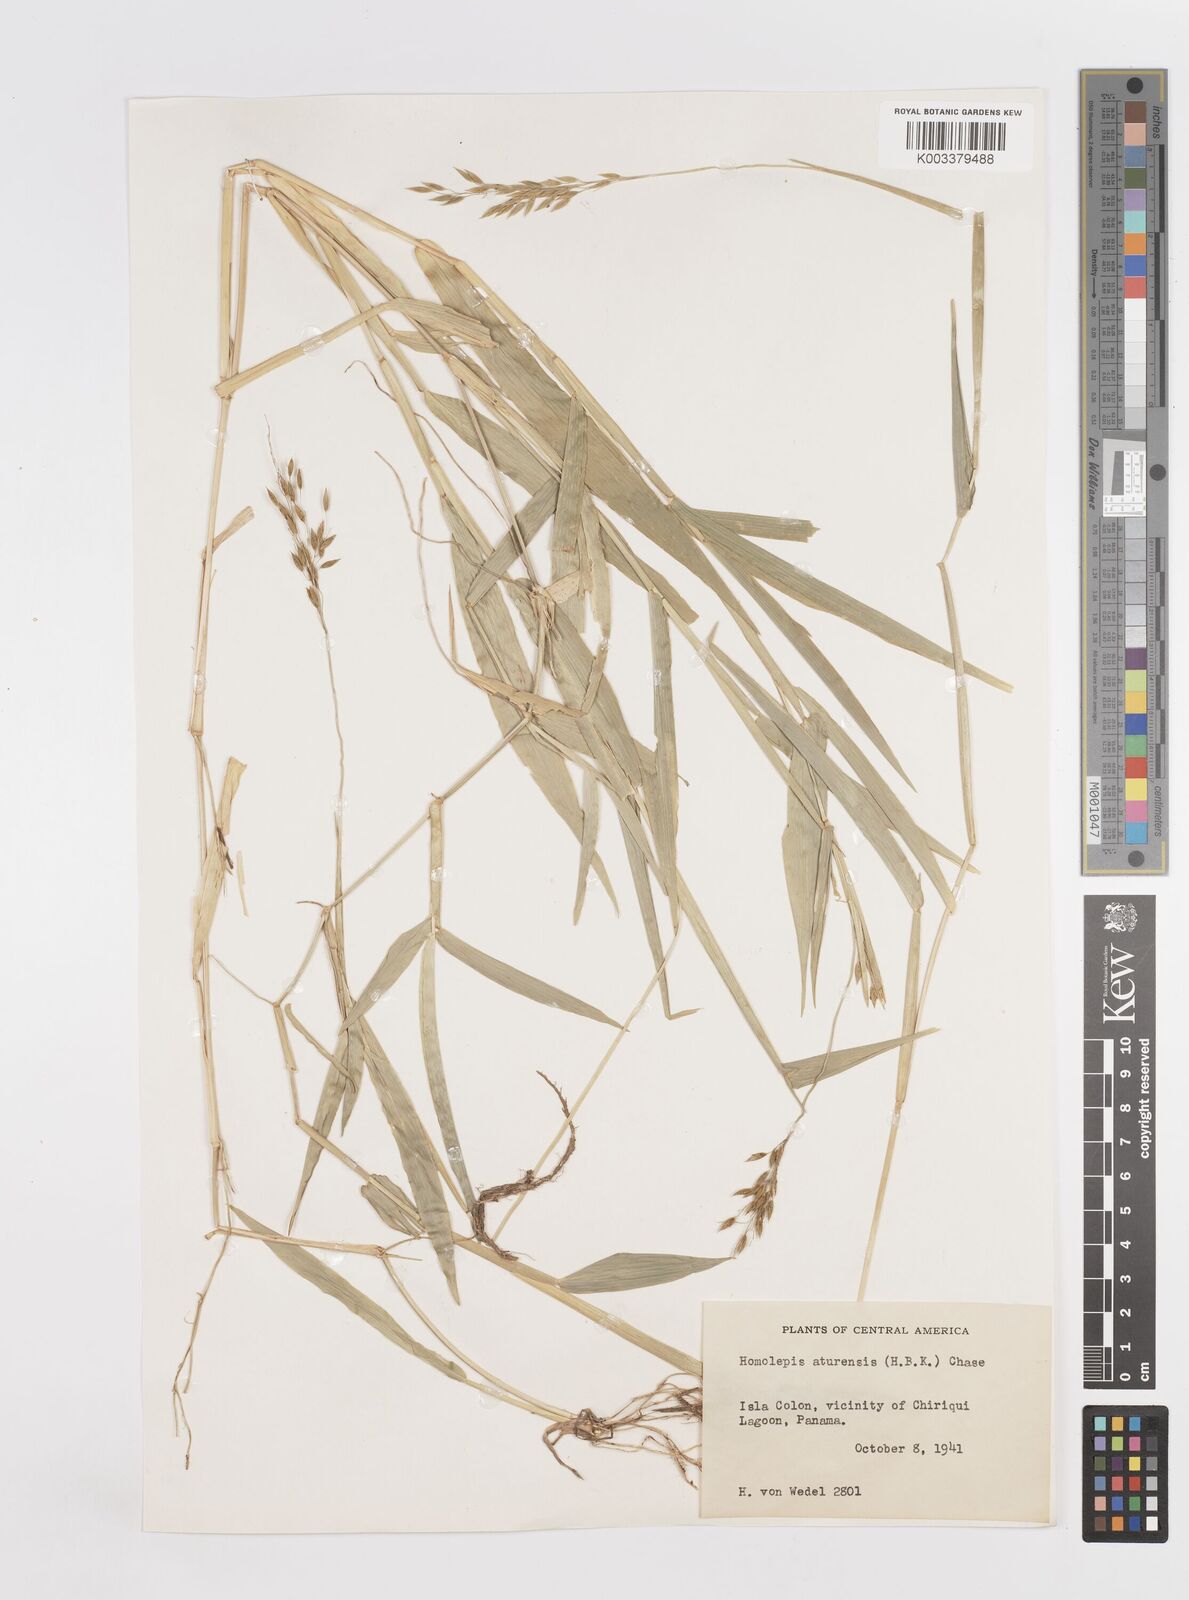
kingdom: Plantae
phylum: Tracheophyta
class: Liliopsida
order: Poales
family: Poaceae
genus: Homolepis
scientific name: Homolepis aturensis
